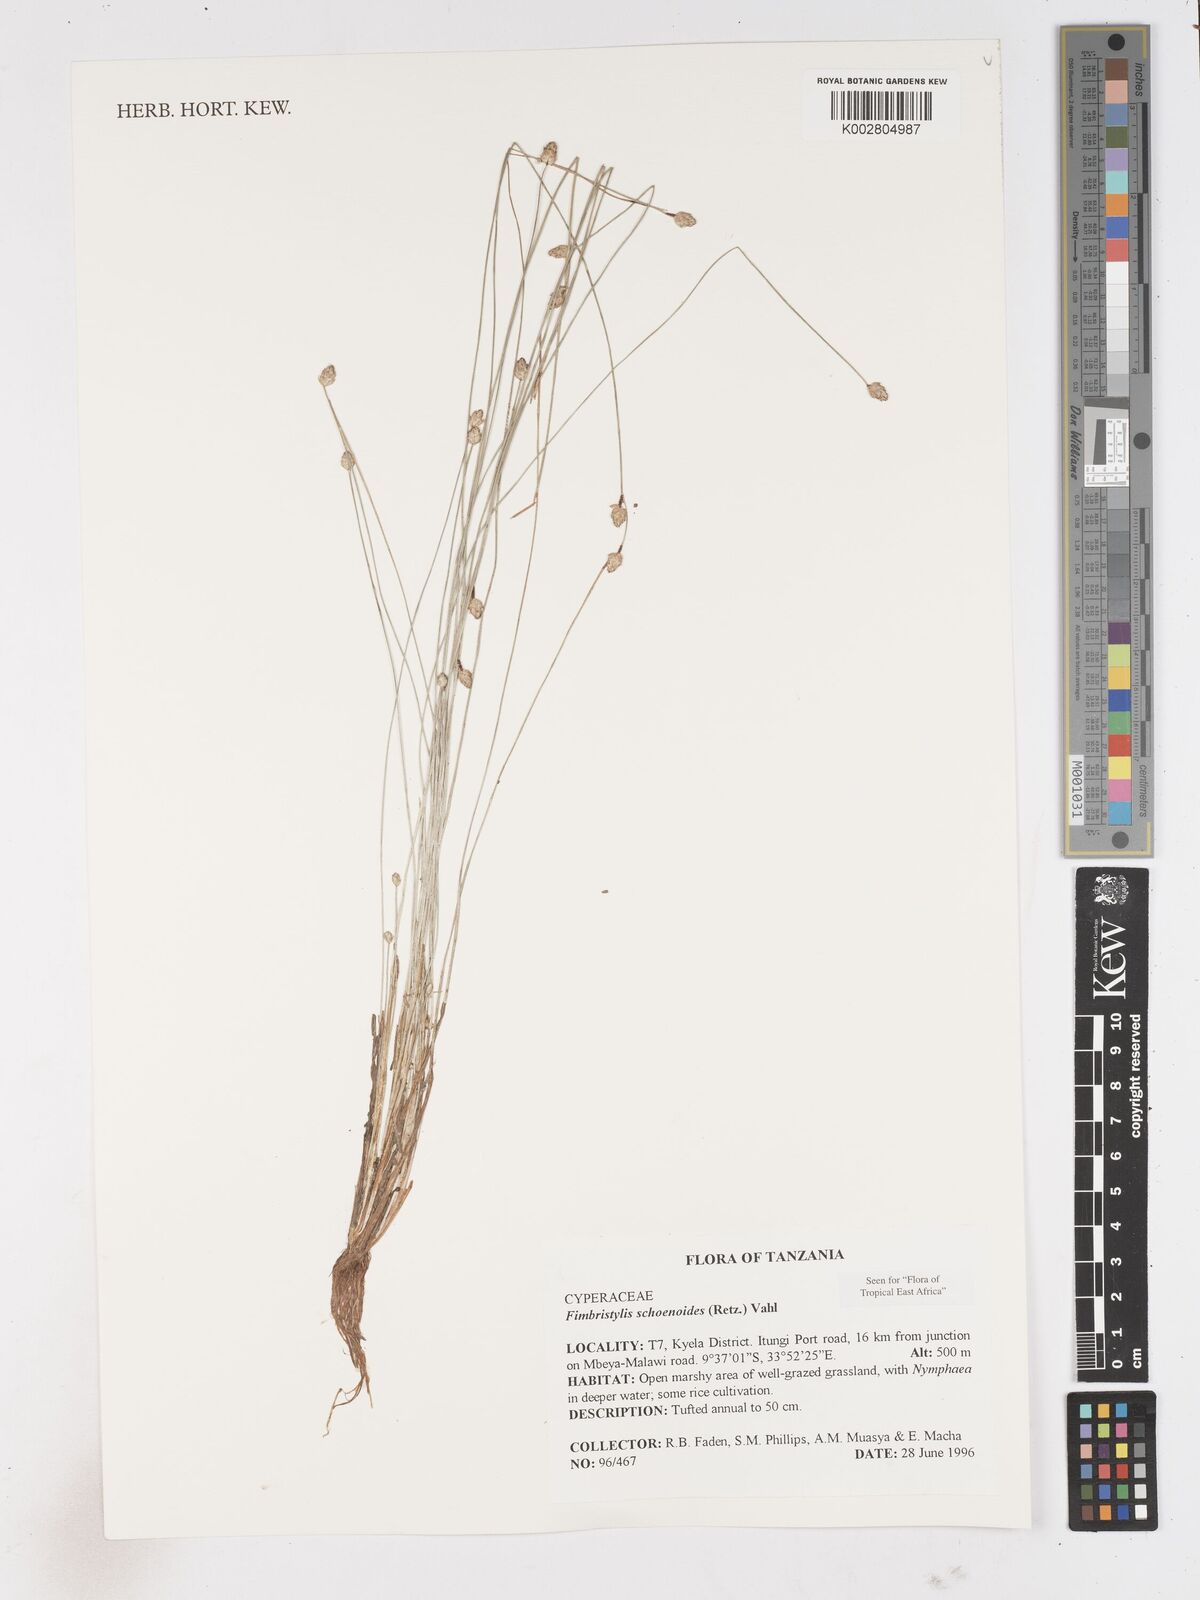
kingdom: Plantae
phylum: Tracheophyta
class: Liliopsida
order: Poales
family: Cyperaceae
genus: Fimbristylis
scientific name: Fimbristylis schoenoides
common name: Ditch fimbry
